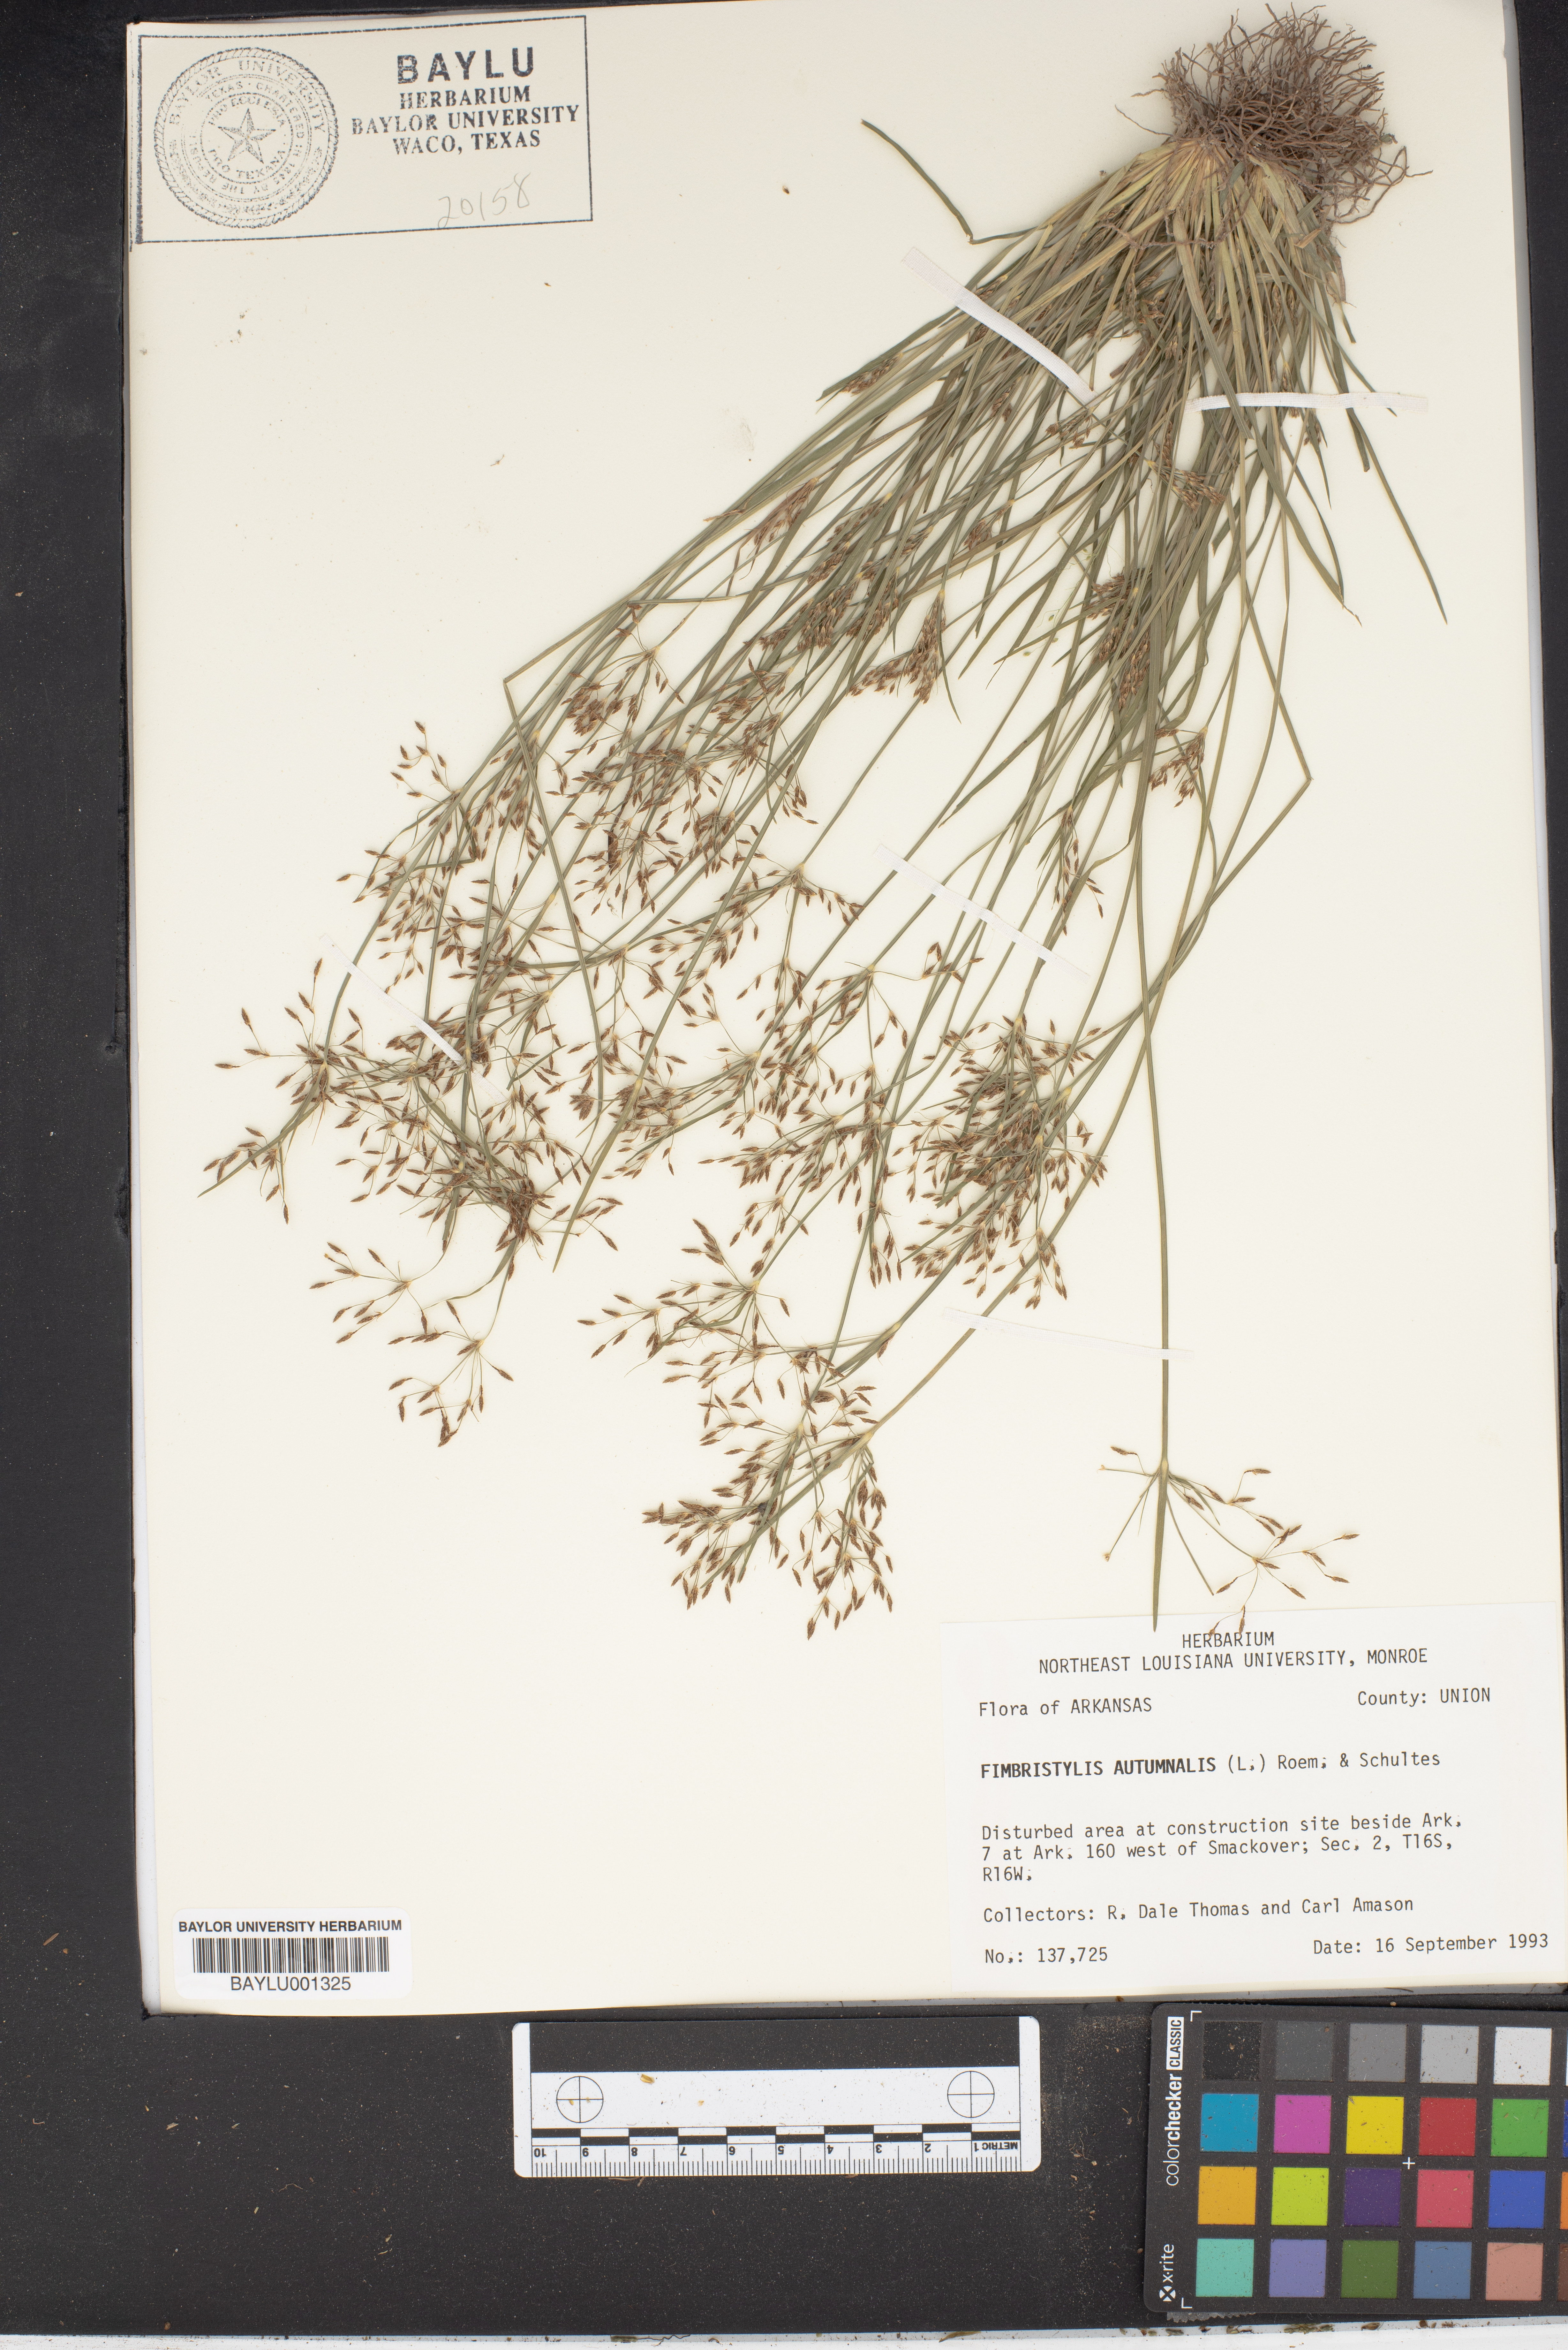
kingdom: Plantae
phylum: Tracheophyta
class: Liliopsida
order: Poales
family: Cyperaceae
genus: Fimbristylis
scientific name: Fimbristylis autumnalis
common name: Slender fimbristylis
